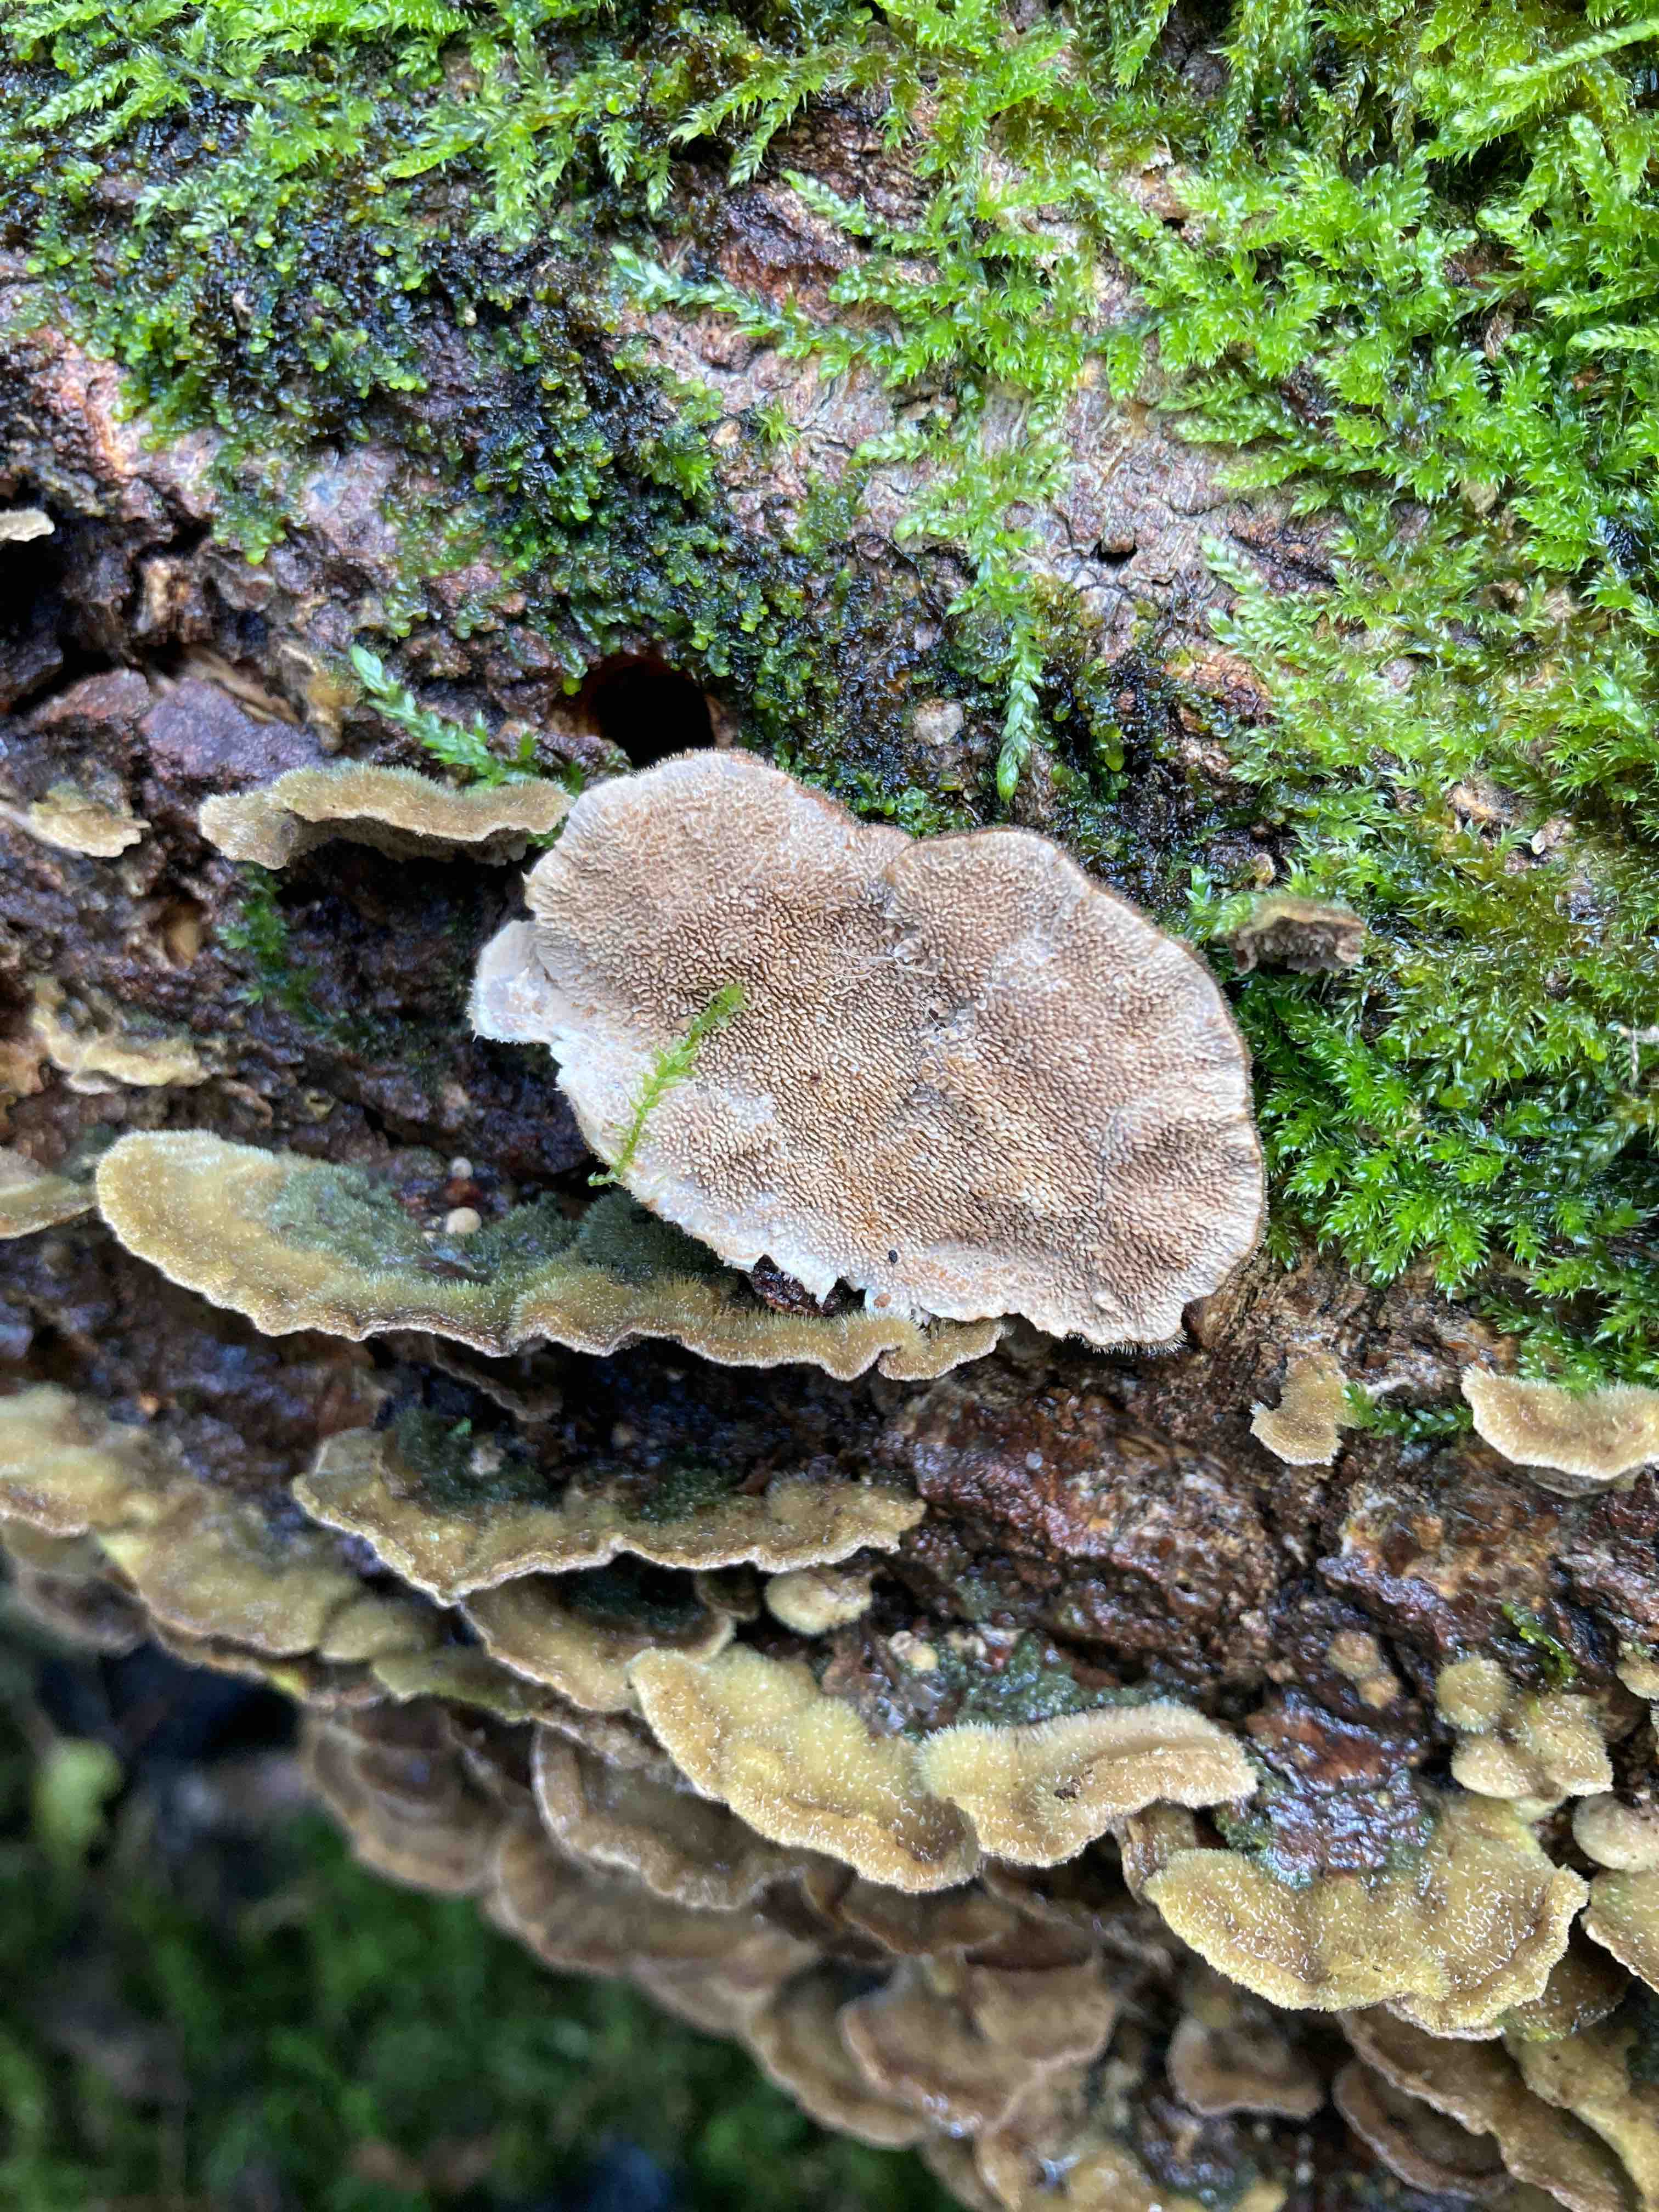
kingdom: Fungi
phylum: Basidiomycota
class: Agaricomycetes
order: Hymenochaetales
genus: Trichaptum
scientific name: Trichaptum fuscoviolaceum
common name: tandet violporesvamp
